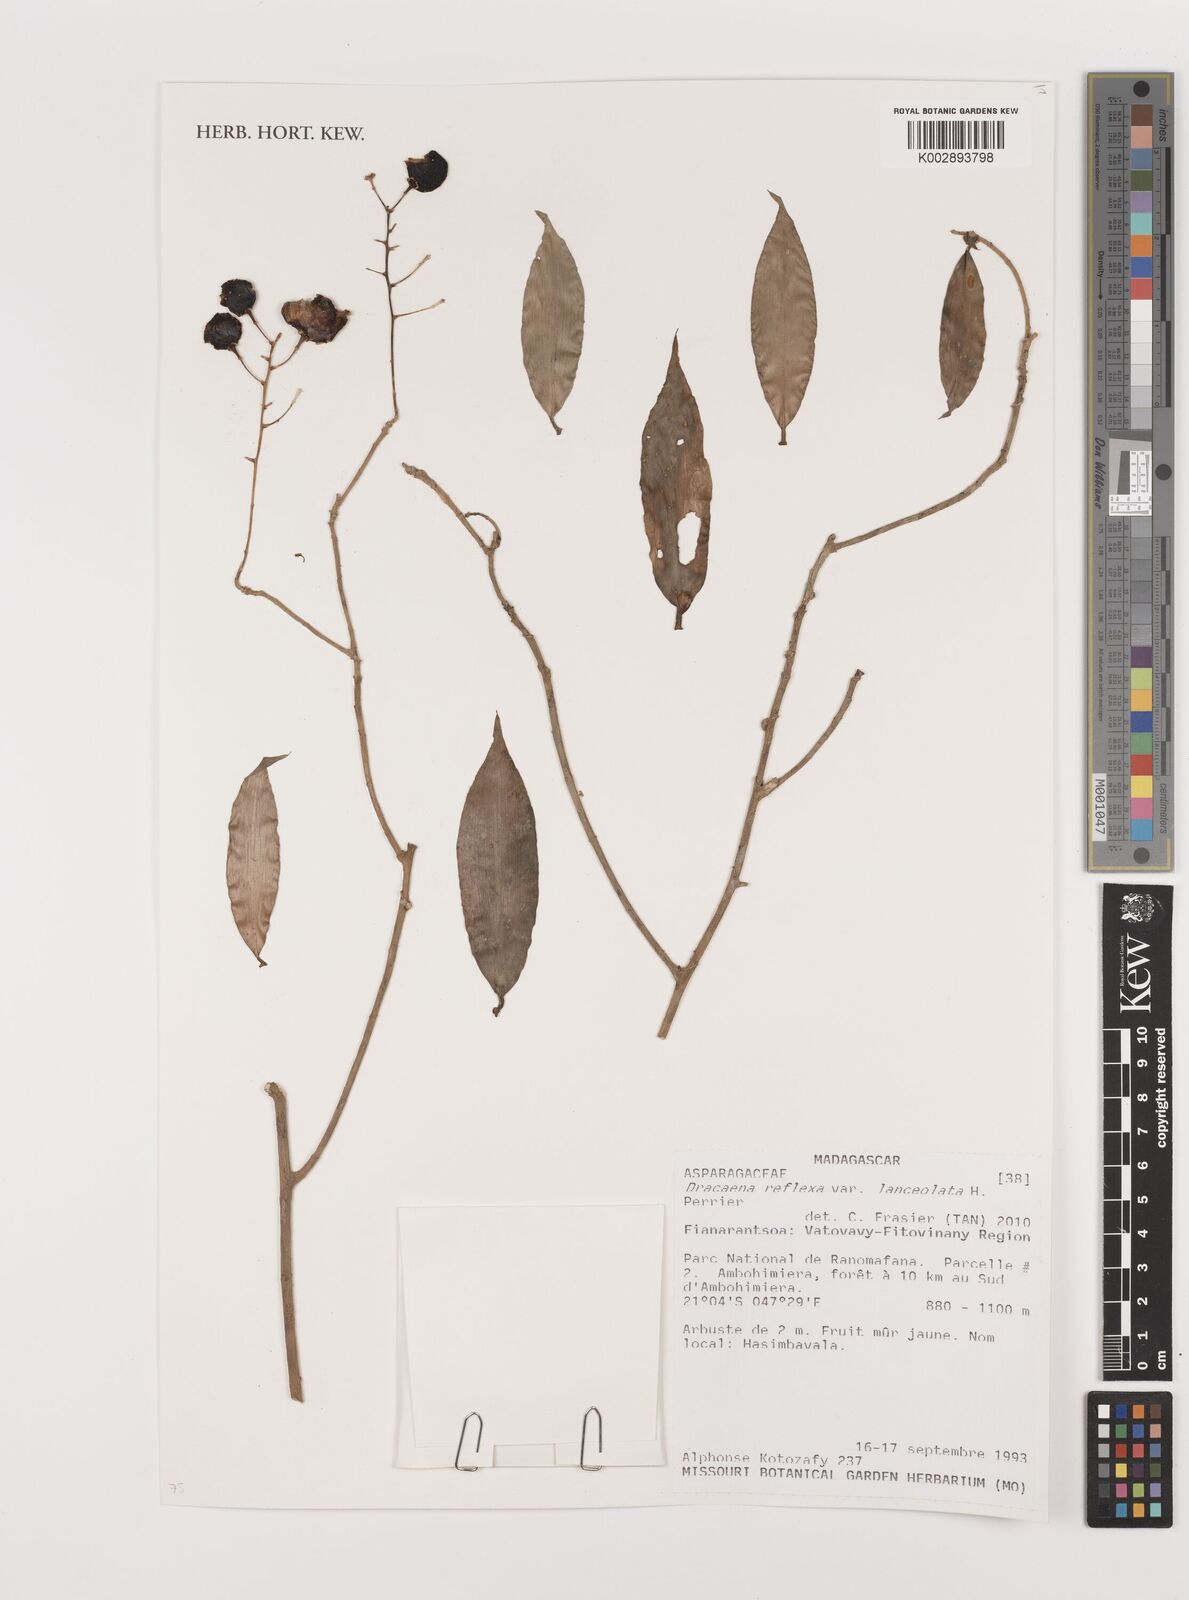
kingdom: Plantae
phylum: Tracheophyta
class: Liliopsida
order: Asparagales
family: Asparagaceae
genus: Dracaena
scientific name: Dracaena reflexa
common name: Song-of-india
